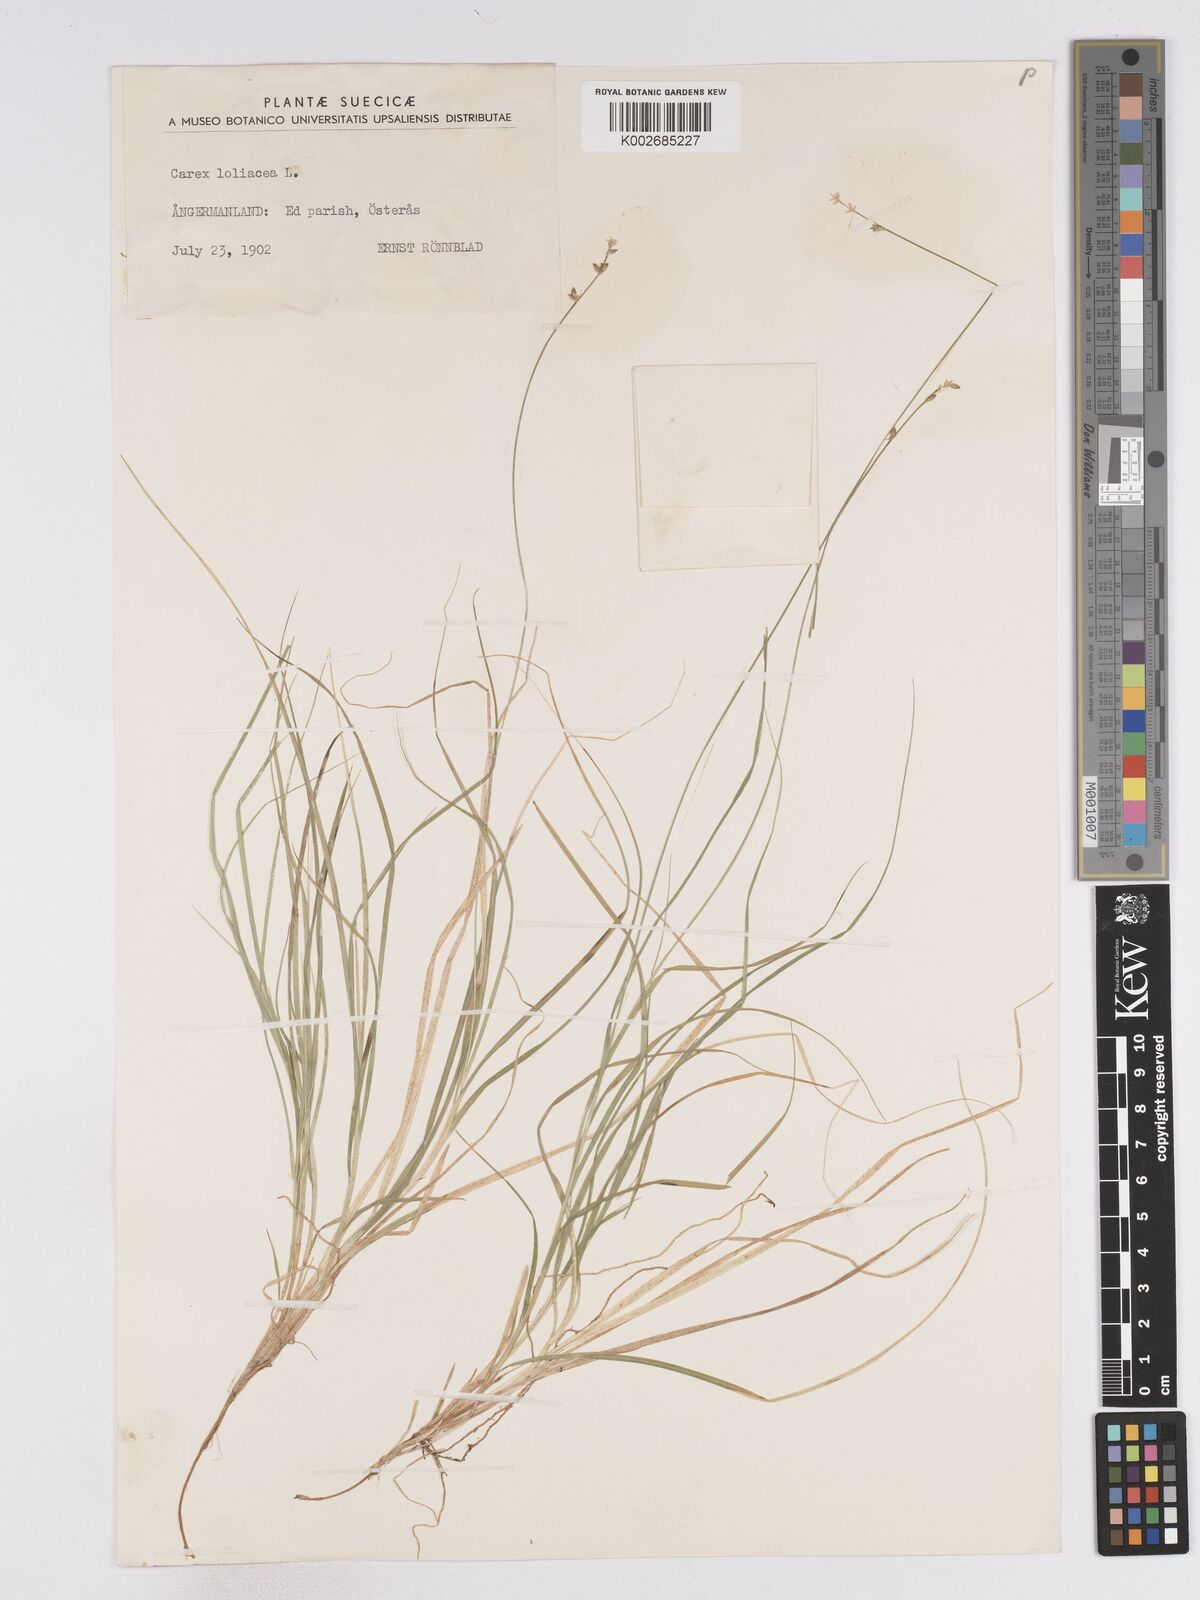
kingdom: Plantae
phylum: Tracheophyta
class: Liliopsida
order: Poales
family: Cyperaceae
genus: Carex
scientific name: Carex loliacea
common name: Ryegrass sedge
